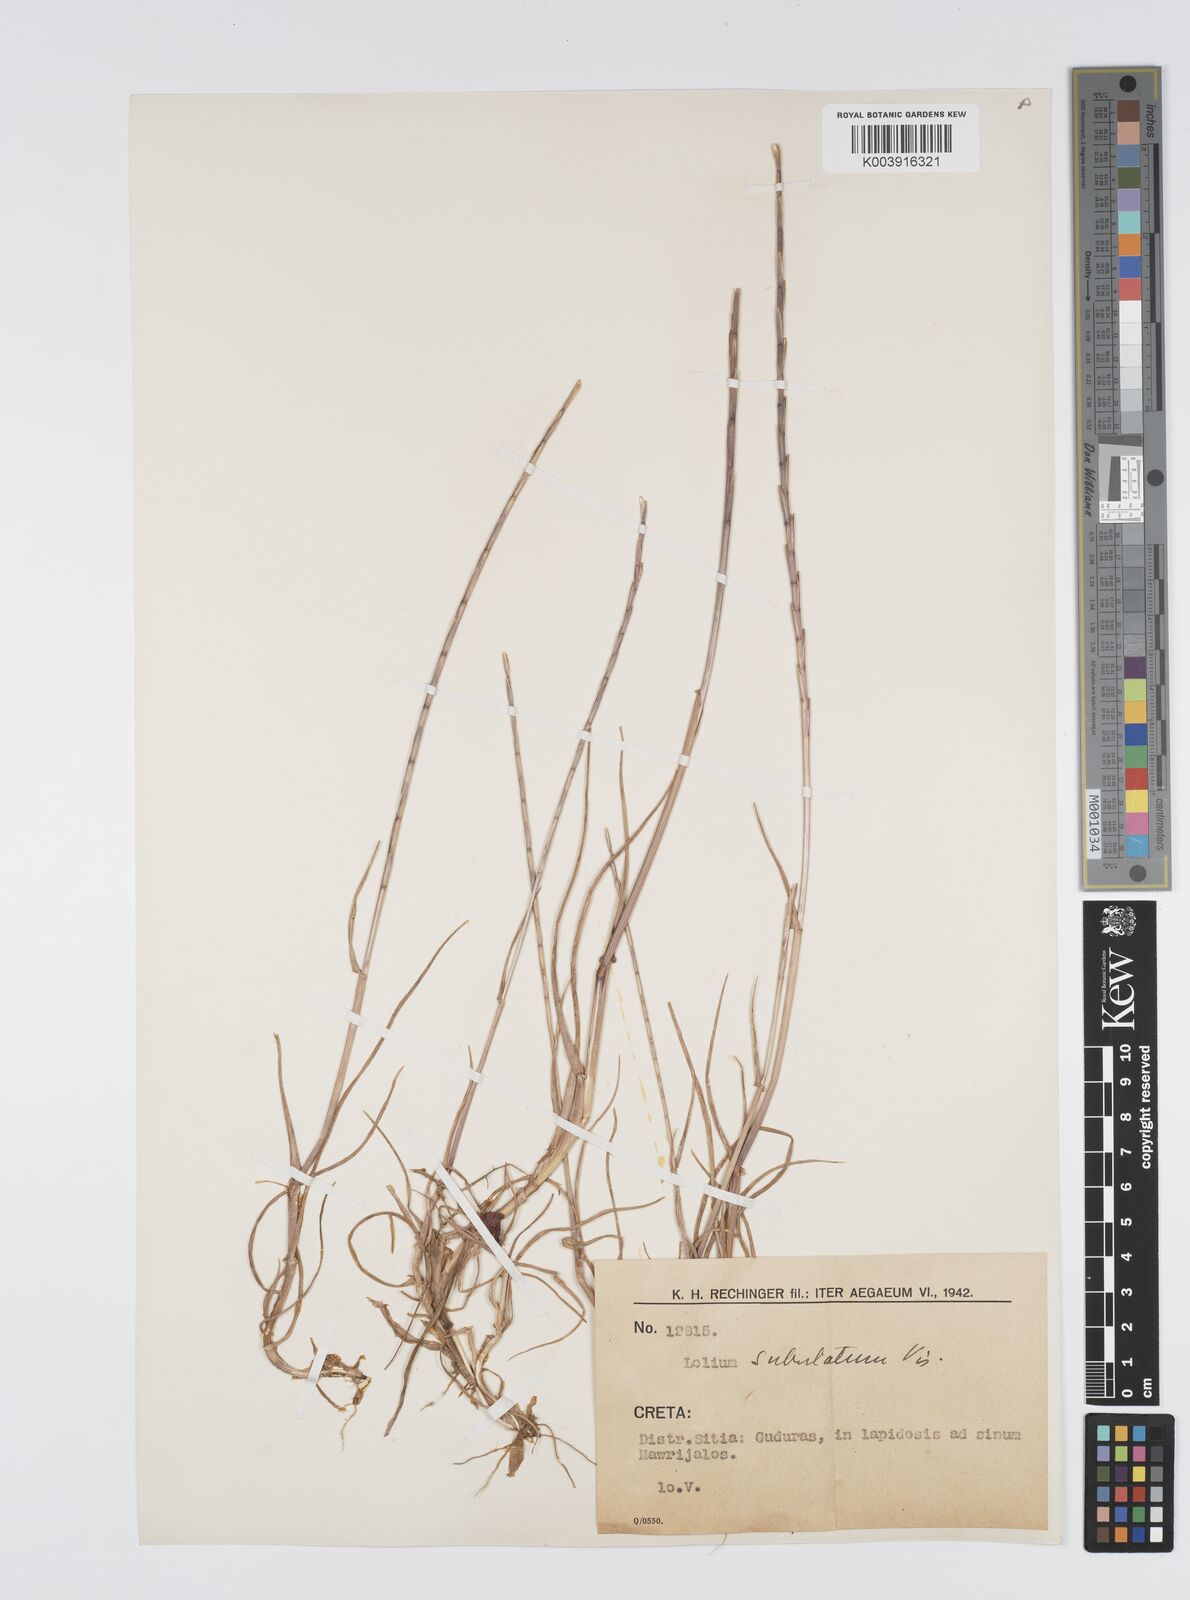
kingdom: Plantae
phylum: Tracheophyta
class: Liliopsida
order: Poales
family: Poaceae
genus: Lolium
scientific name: Lolium rigidum
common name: Wimmera ryegrass
